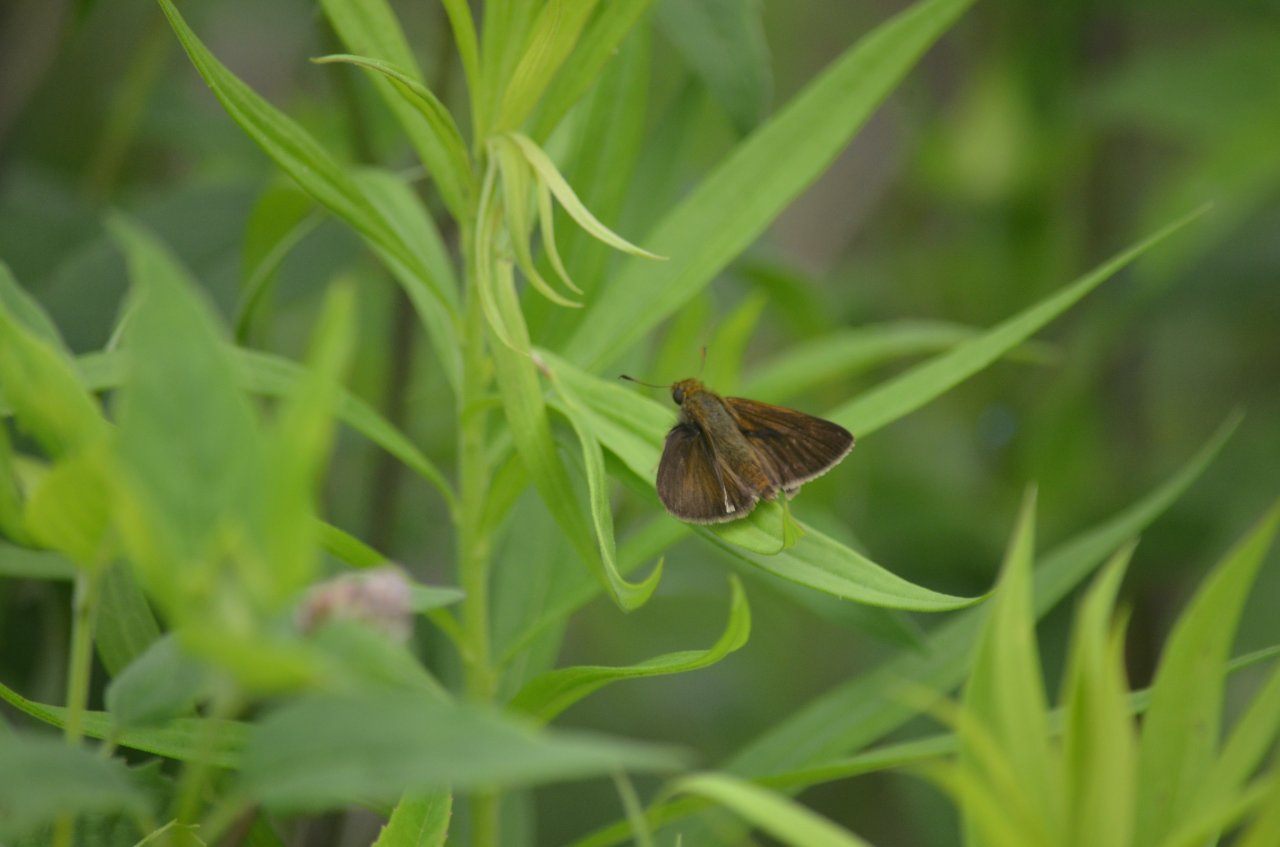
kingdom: Animalia
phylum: Arthropoda
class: Insecta
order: Lepidoptera
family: Hesperiidae
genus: Euphyes
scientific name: Euphyes vestris
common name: Dun Skipper
